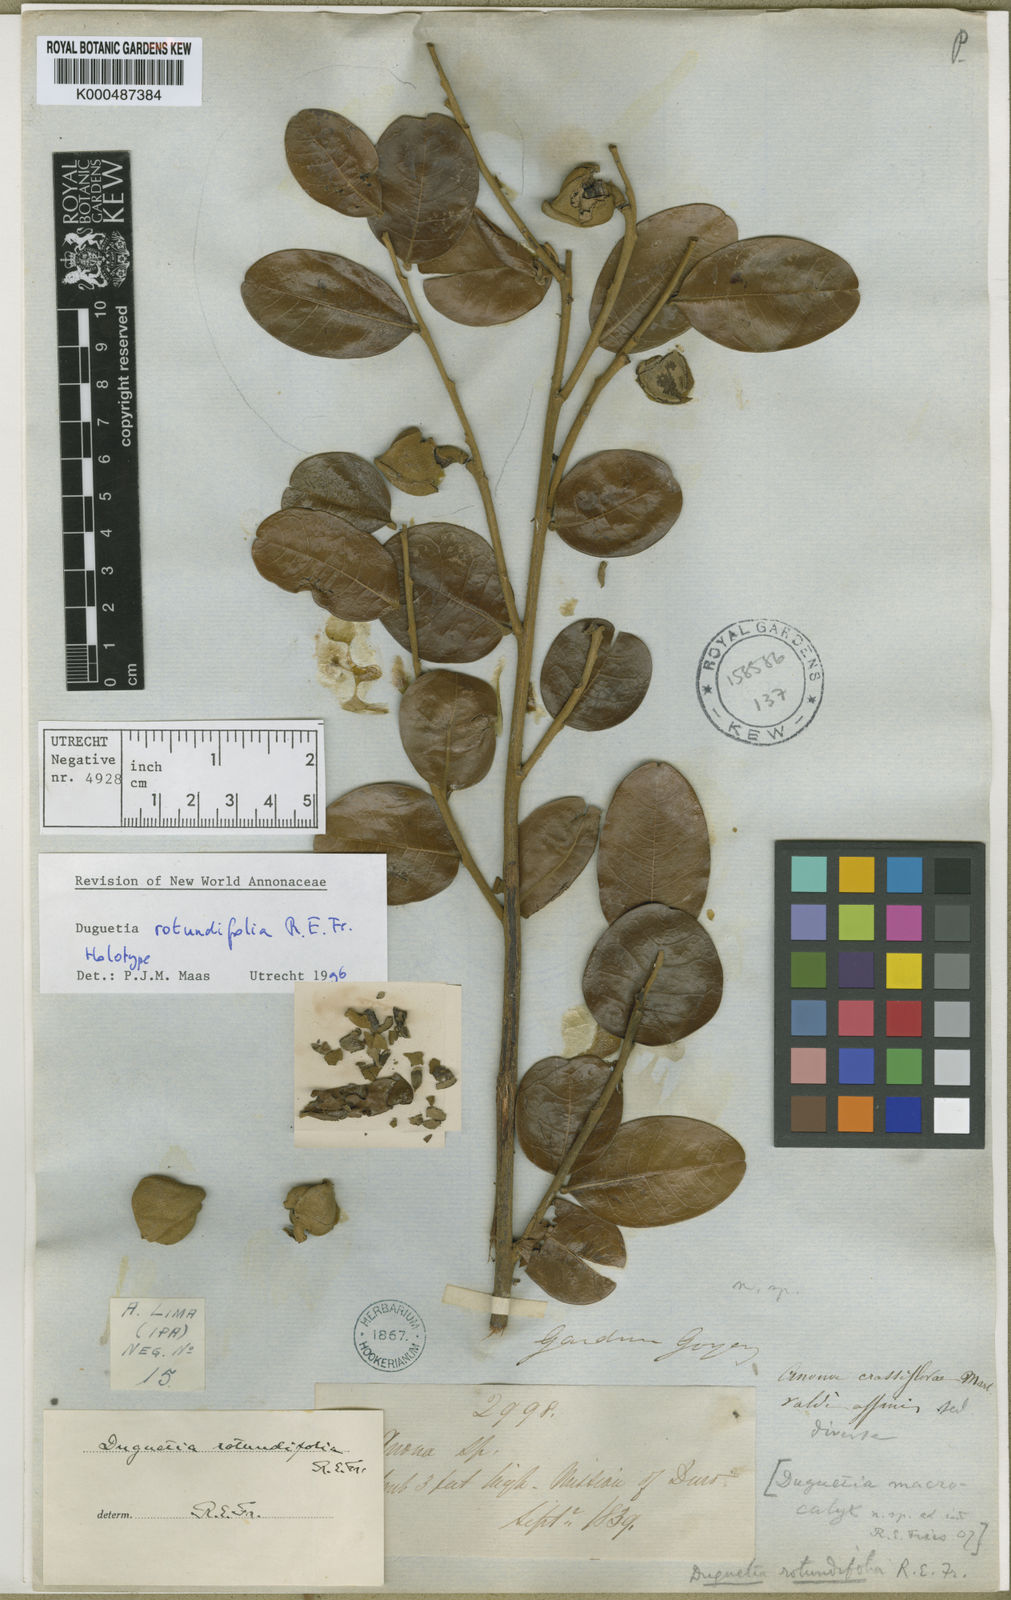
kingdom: Plantae
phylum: Tracheophyta
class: Magnoliopsida
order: Magnoliales
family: Annonaceae
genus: Duguetia
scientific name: Duguetia rotundifolia
